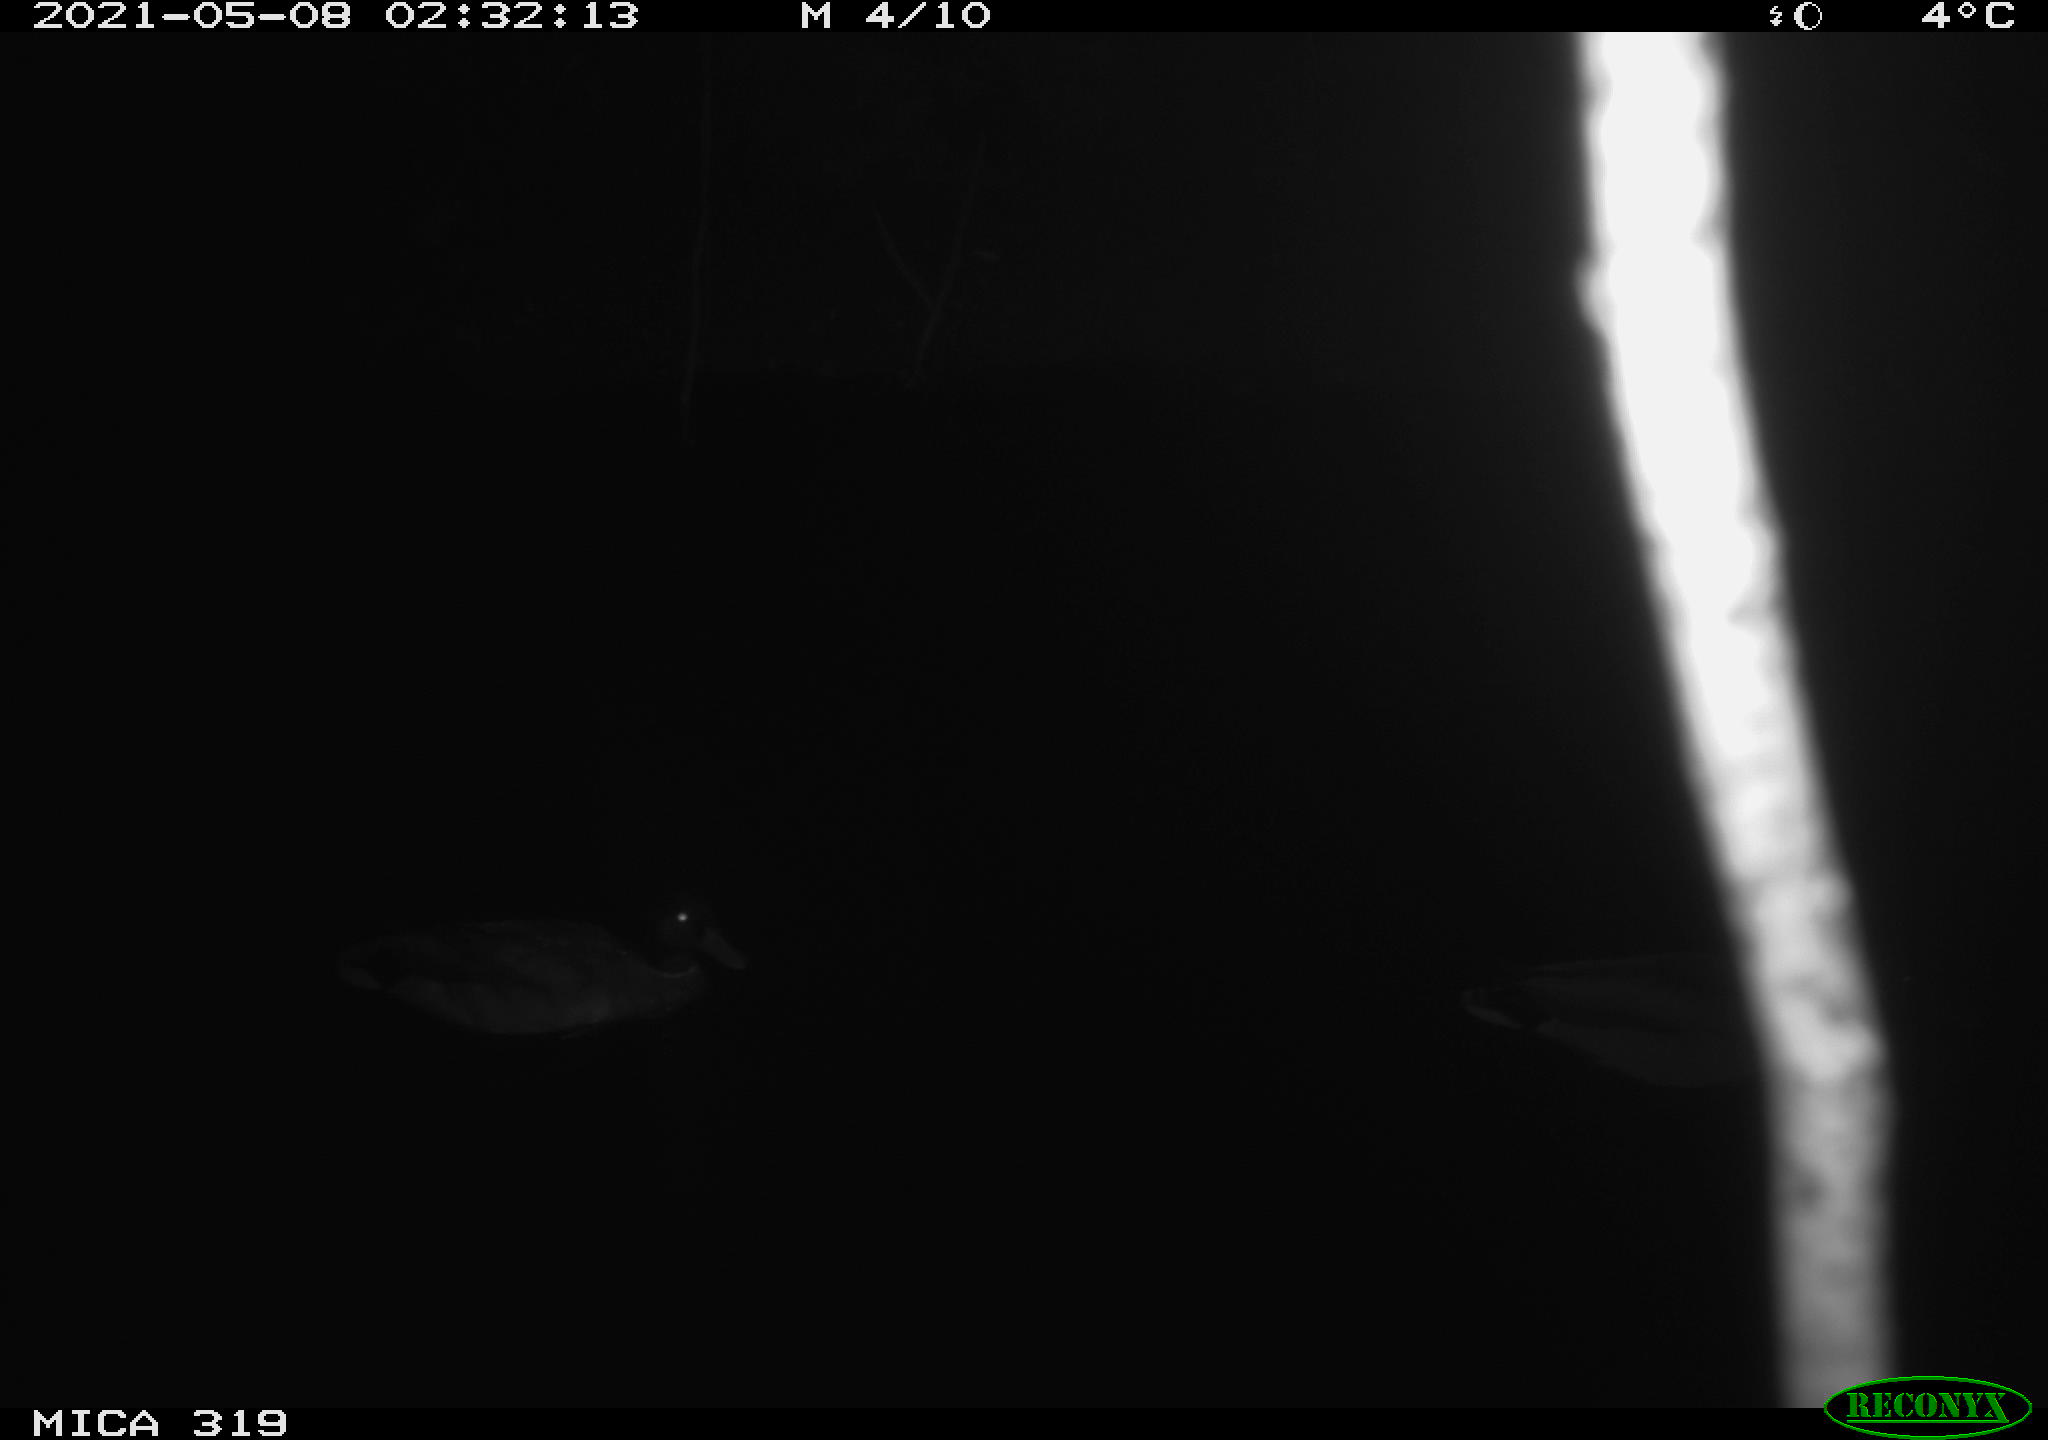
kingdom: Animalia
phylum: Chordata
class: Aves
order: Anseriformes
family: Anatidae
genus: Anas
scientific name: Anas platyrhynchos
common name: Mallard
